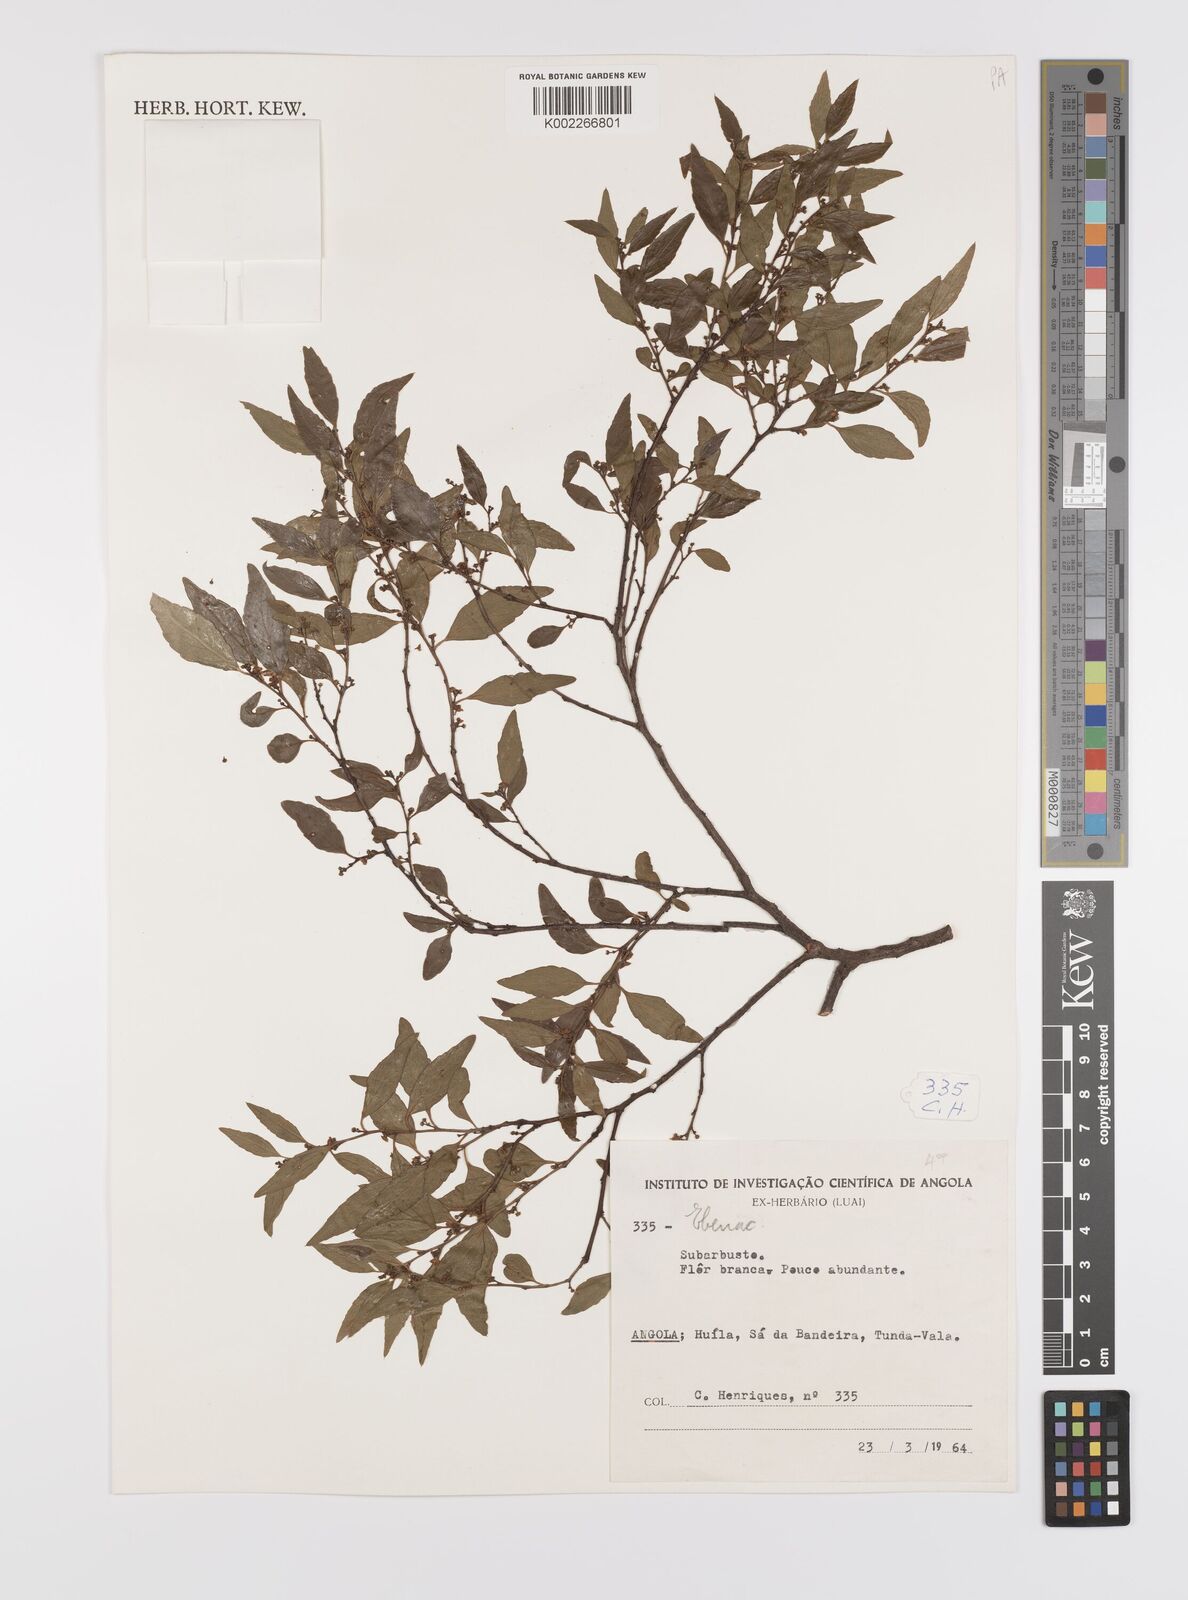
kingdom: Plantae
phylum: Tracheophyta
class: Magnoliopsida
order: Celastrales
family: Celastraceae
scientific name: Celastraceae
